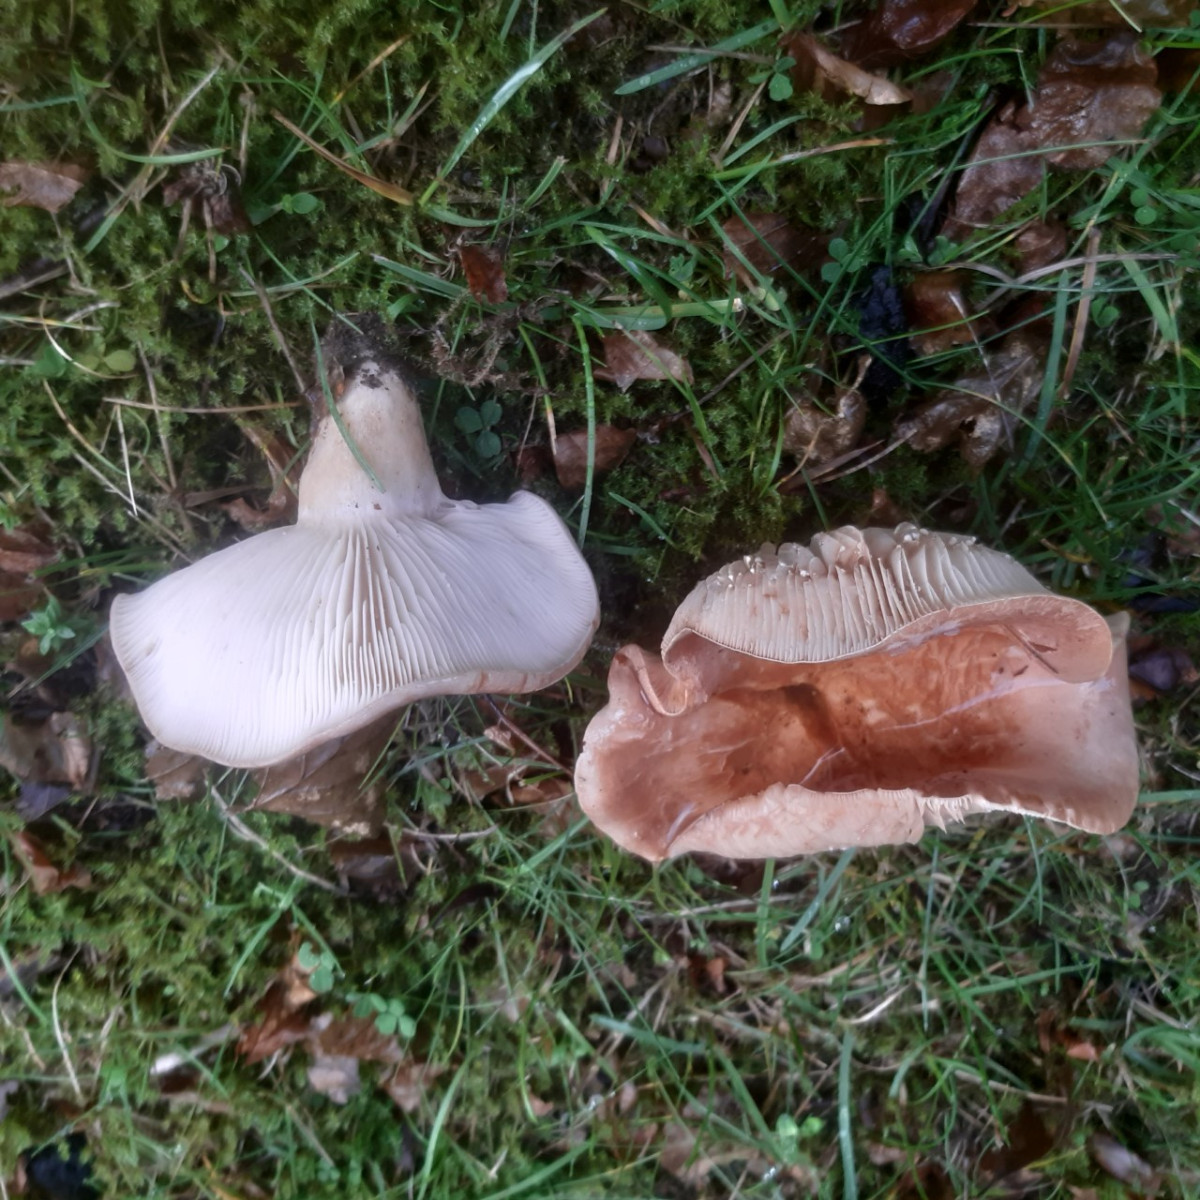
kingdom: Fungi
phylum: Basidiomycota
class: Agaricomycetes
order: Russulales
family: Russulaceae
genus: Lactarius
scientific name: Lactarius
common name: mælkehat
